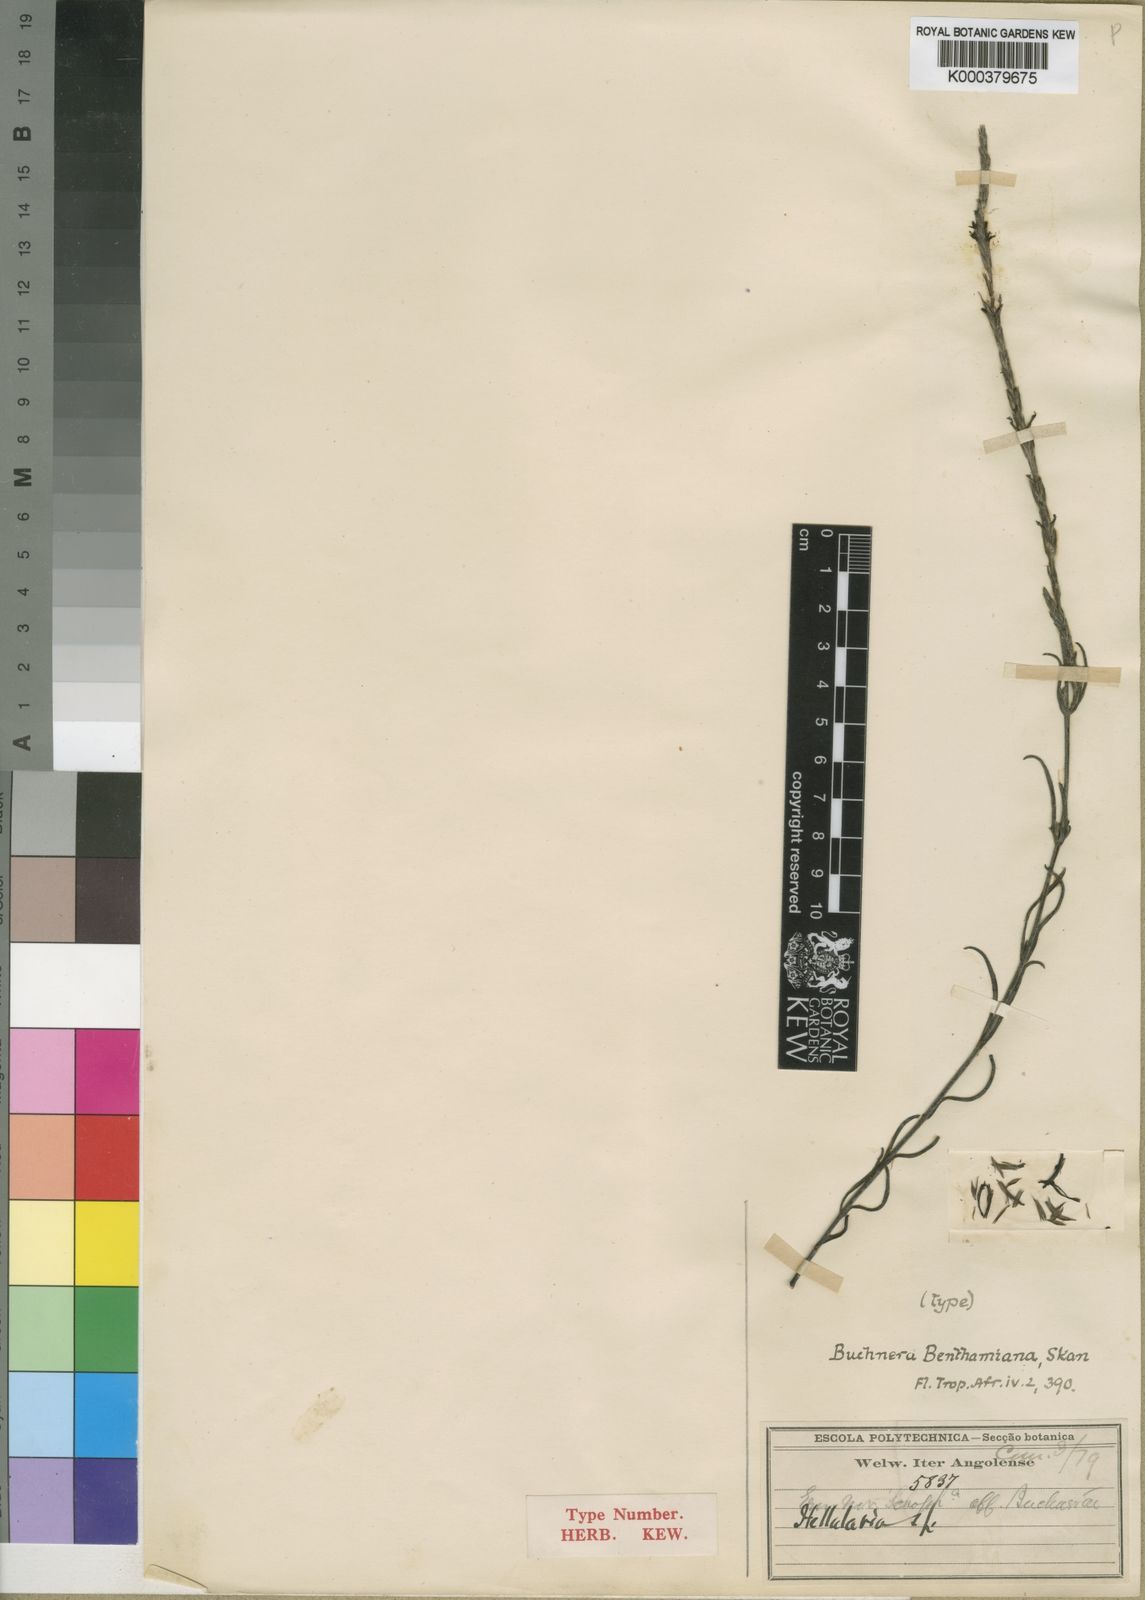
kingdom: Plantae
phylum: Tracheophyta
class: Magnoliopsida
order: Lamiales
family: Orobanchaceae
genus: Buchnera
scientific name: Buchnera nigricans
